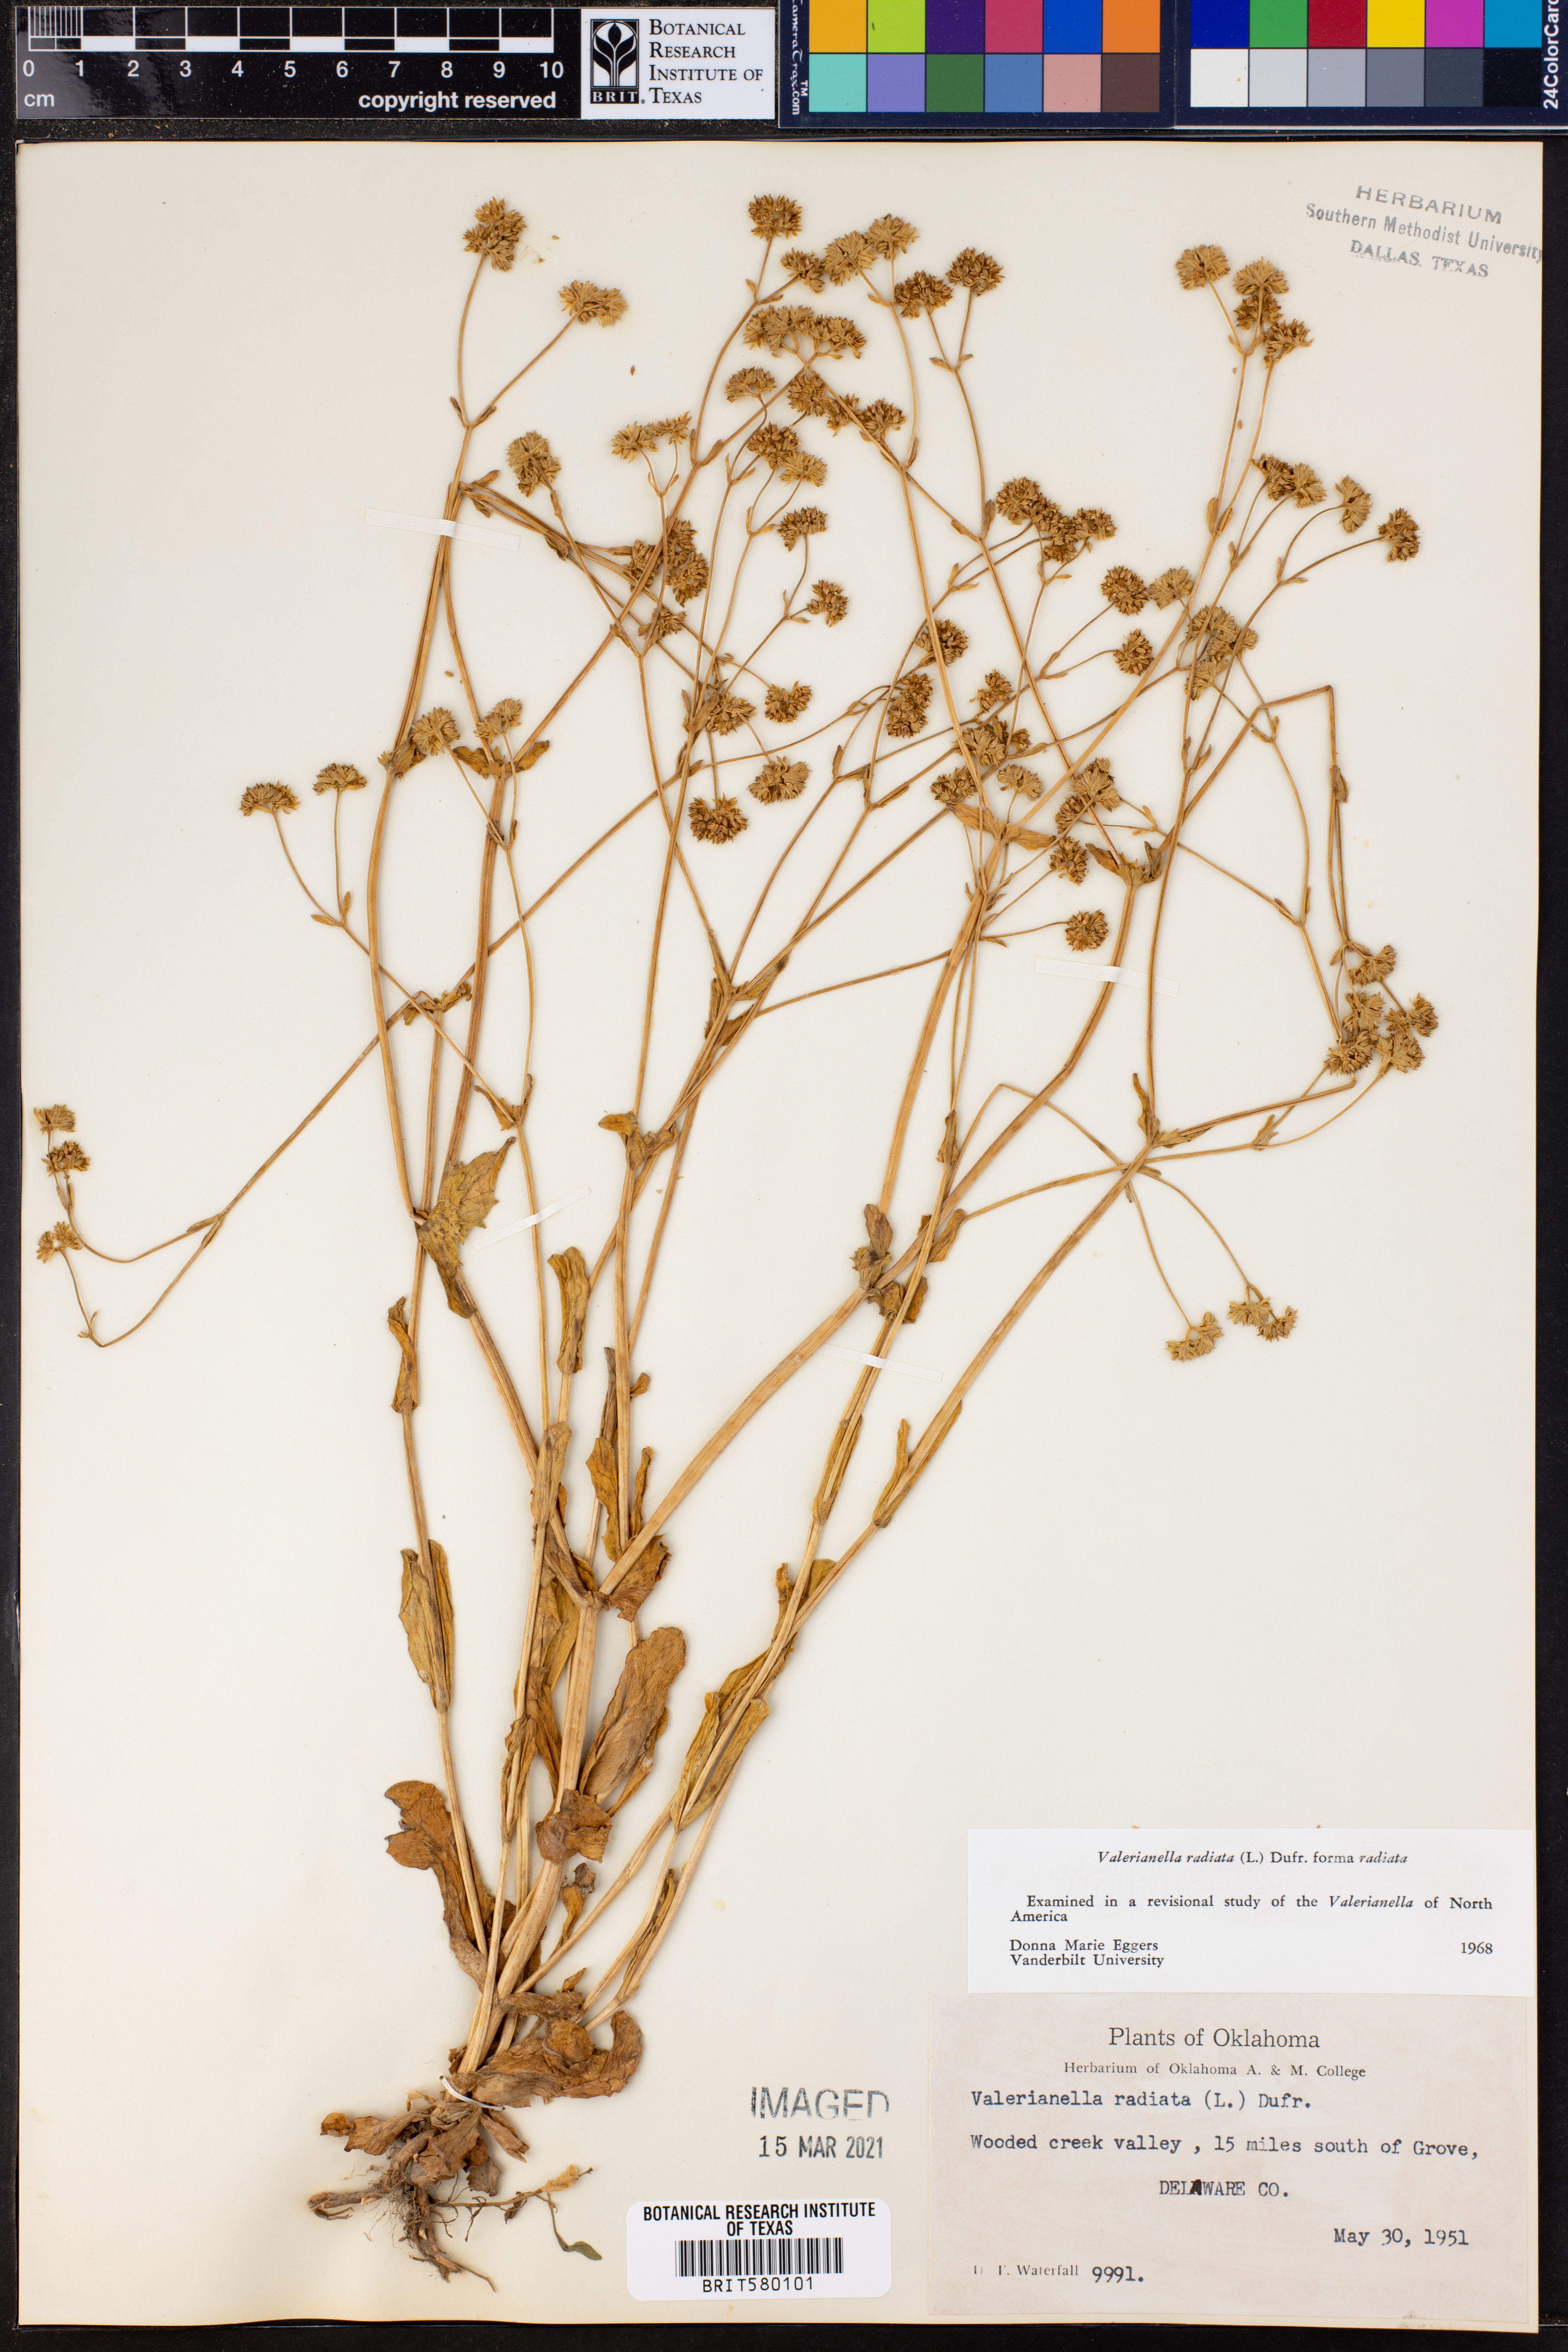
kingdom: Plantae
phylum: Tracheophyta
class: Magnoliopsida
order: Dipsacales
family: Caprifoliaceae
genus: Valerianella
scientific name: Valerianella radiata
